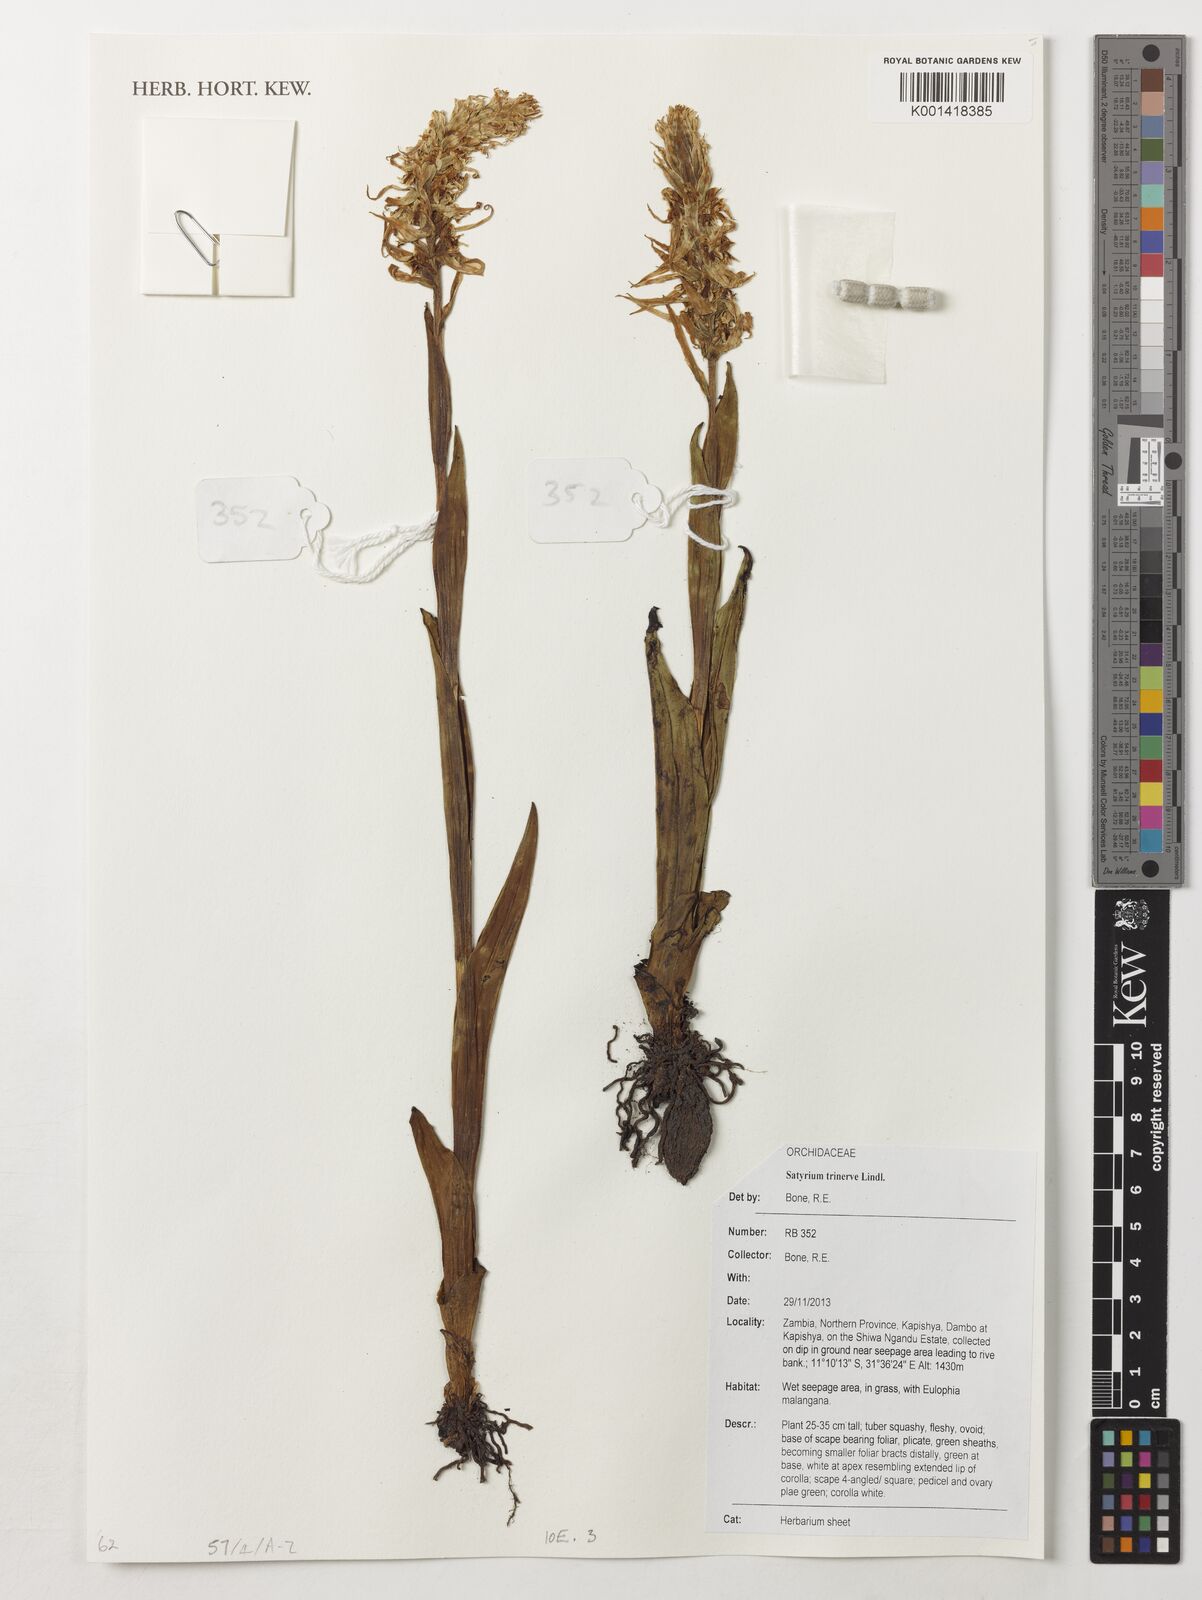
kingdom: Plantae
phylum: Tracheophyta
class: Liliopsida
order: Asparagales
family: Orchidaceae
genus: Satyrium
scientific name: Satyrium trinerve
